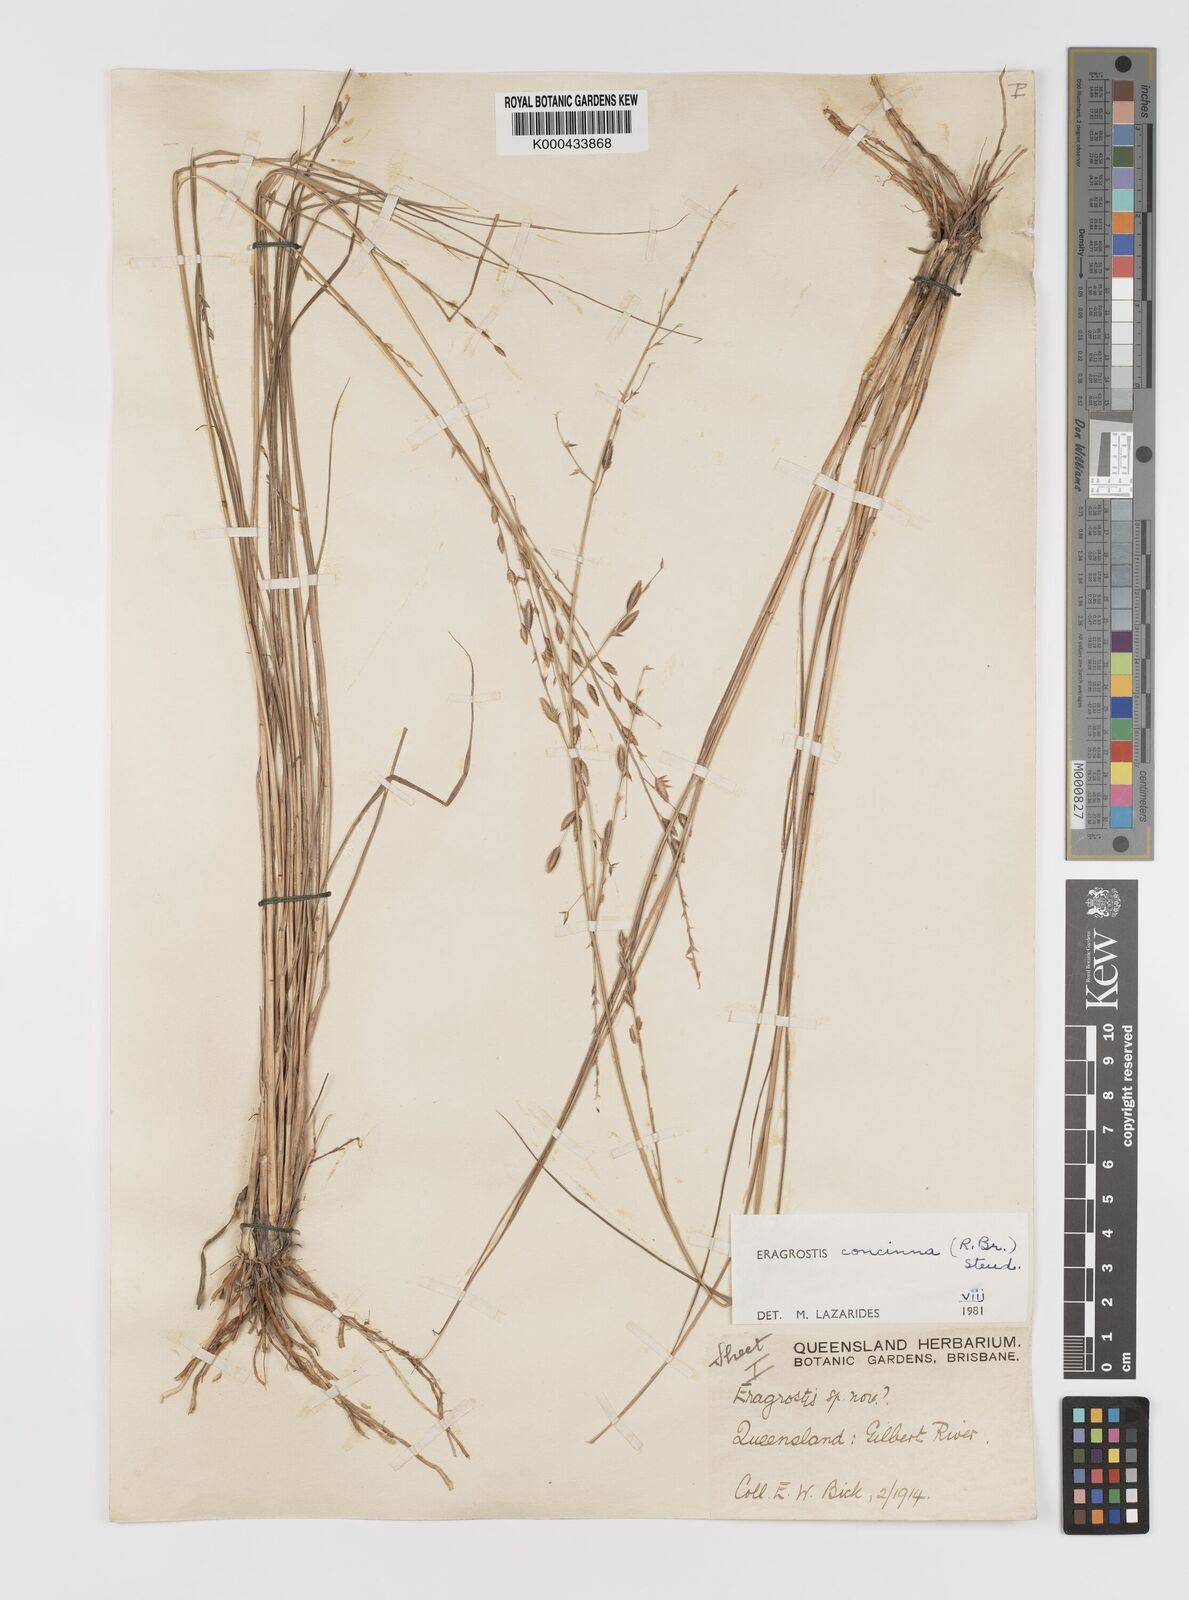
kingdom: Plantae
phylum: Tracheophyta
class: Liliopsida
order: Poales
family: Poaceae
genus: Eragrostis
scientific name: Eragrostis concinna
